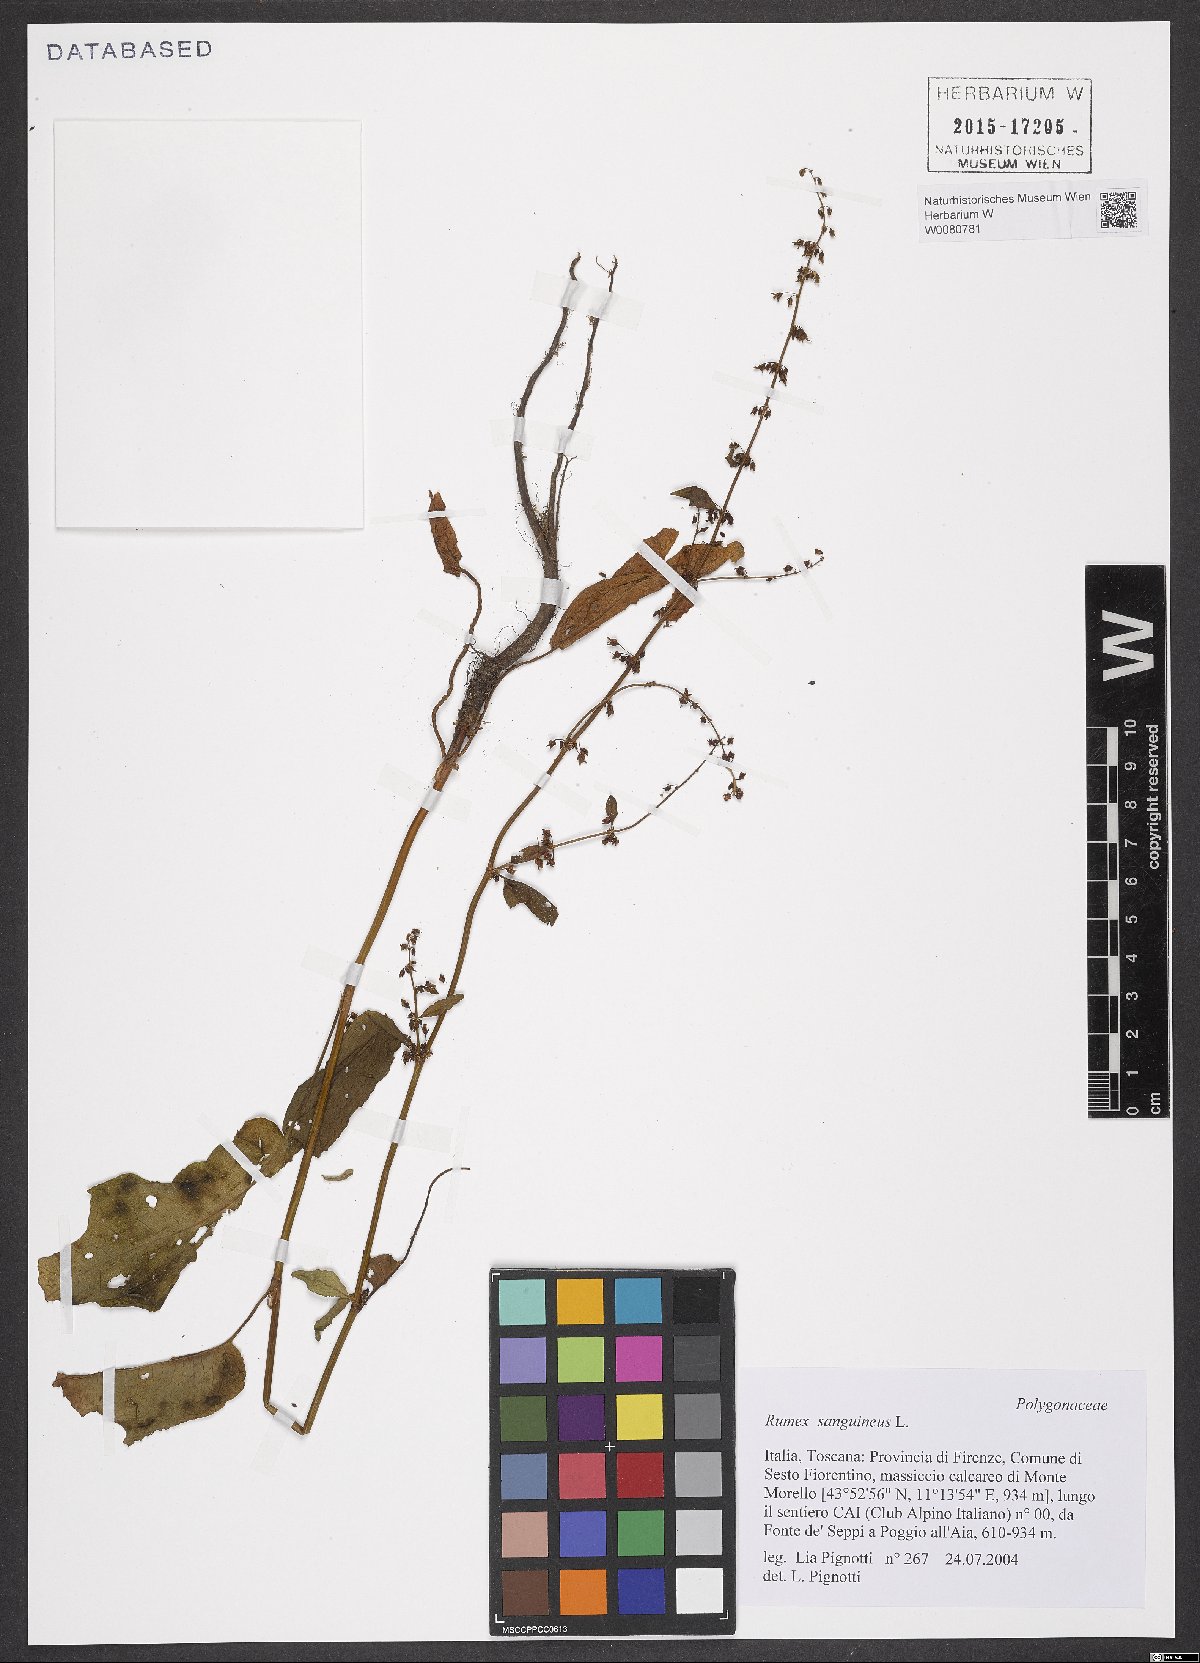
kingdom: Plantae
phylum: Tracheophyta
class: Magnoliopsida
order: Caryophyllales
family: Polygonaceae
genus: Rumex
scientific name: Rumex sanguineus
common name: Wood dock
